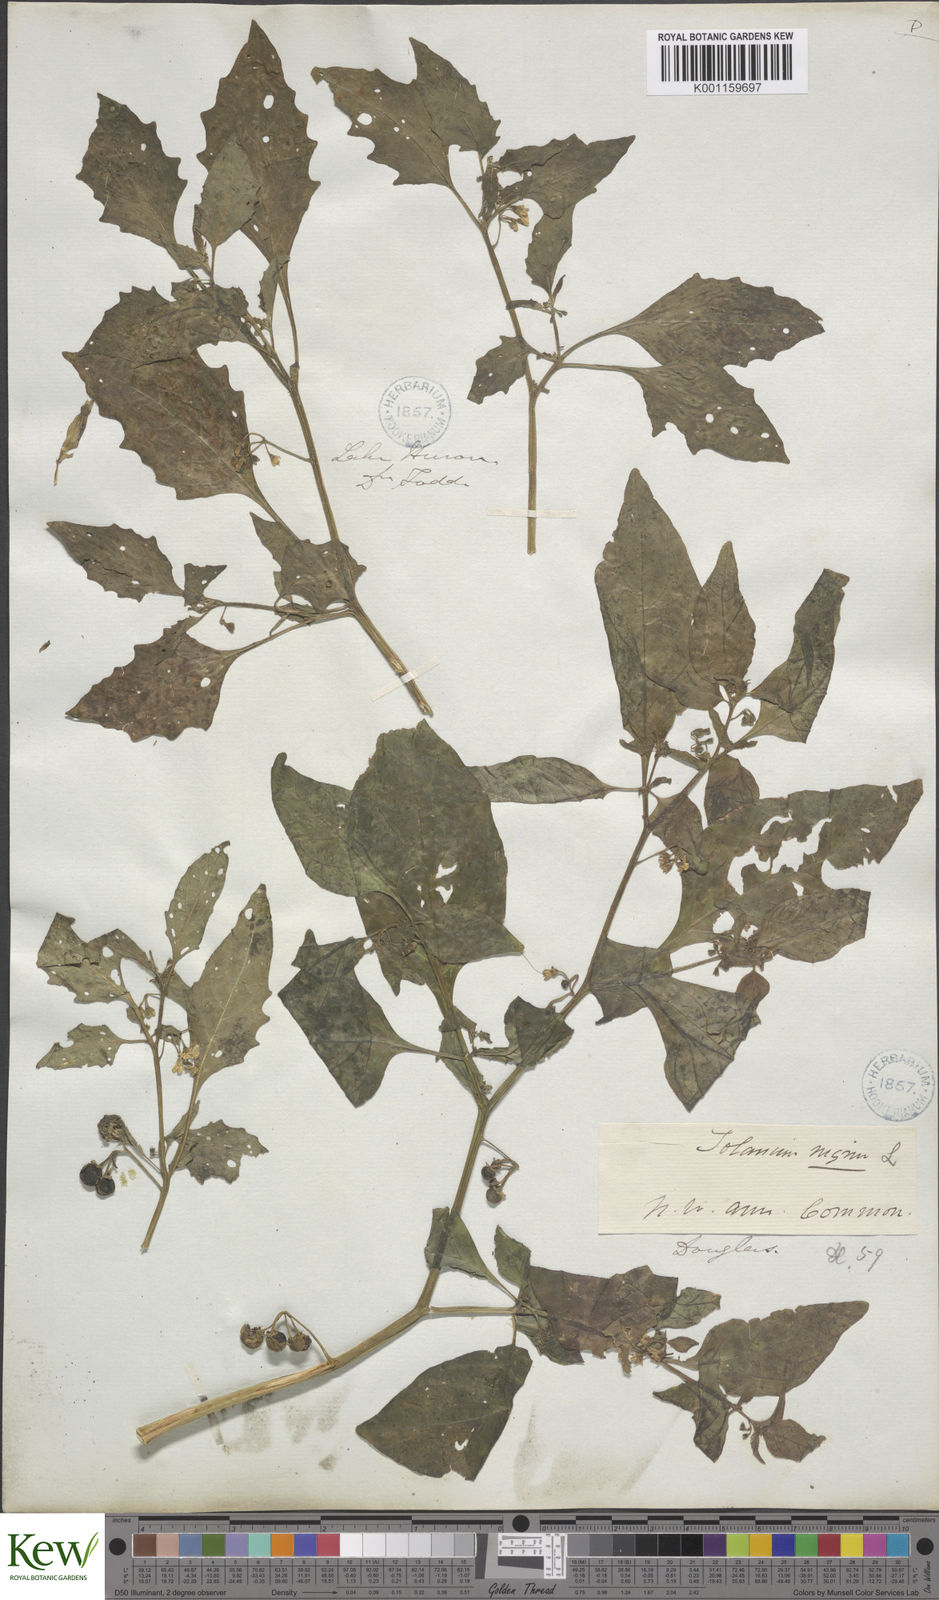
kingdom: Plantae
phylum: Tracheophyta
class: Magnoliopsida
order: Solanales
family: Solanaceae
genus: Solanum
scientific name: Solanum nigrum
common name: Black nightshade
